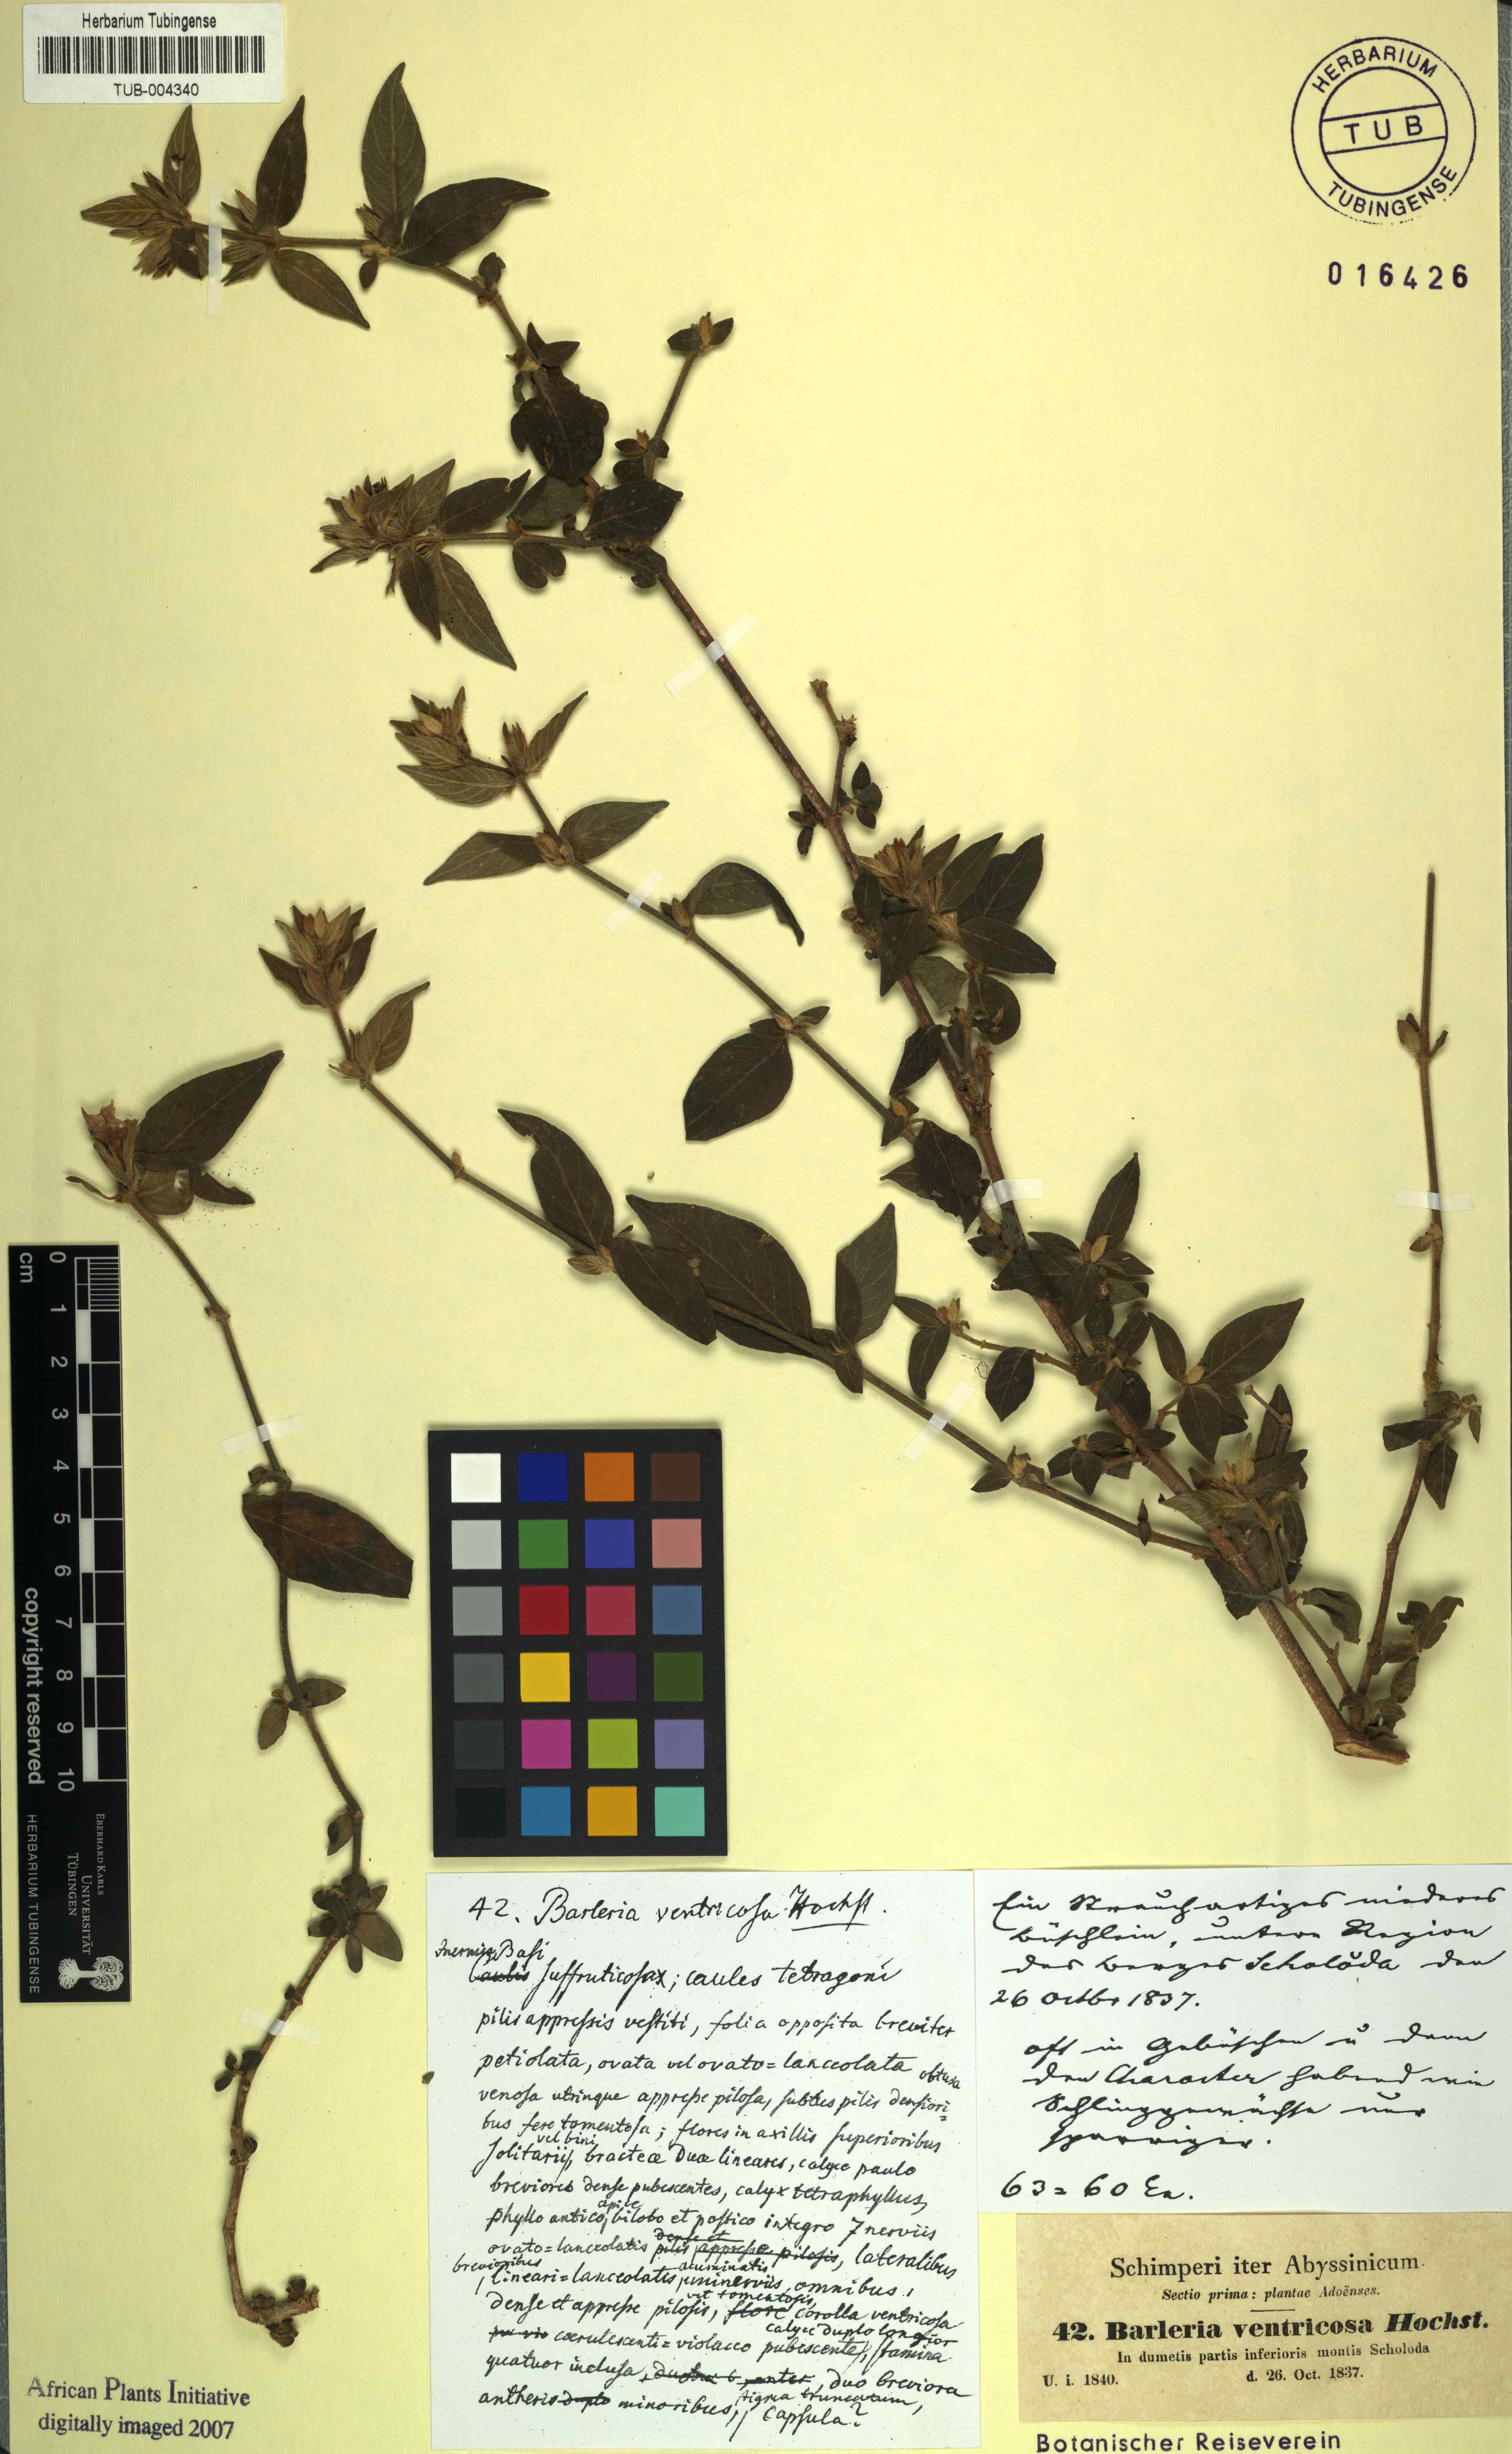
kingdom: Plantae
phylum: Tracheophyta
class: Magnoliopsida
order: Lamiales
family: Acanthaceae
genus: Barleria
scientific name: Barleria ventricosa
